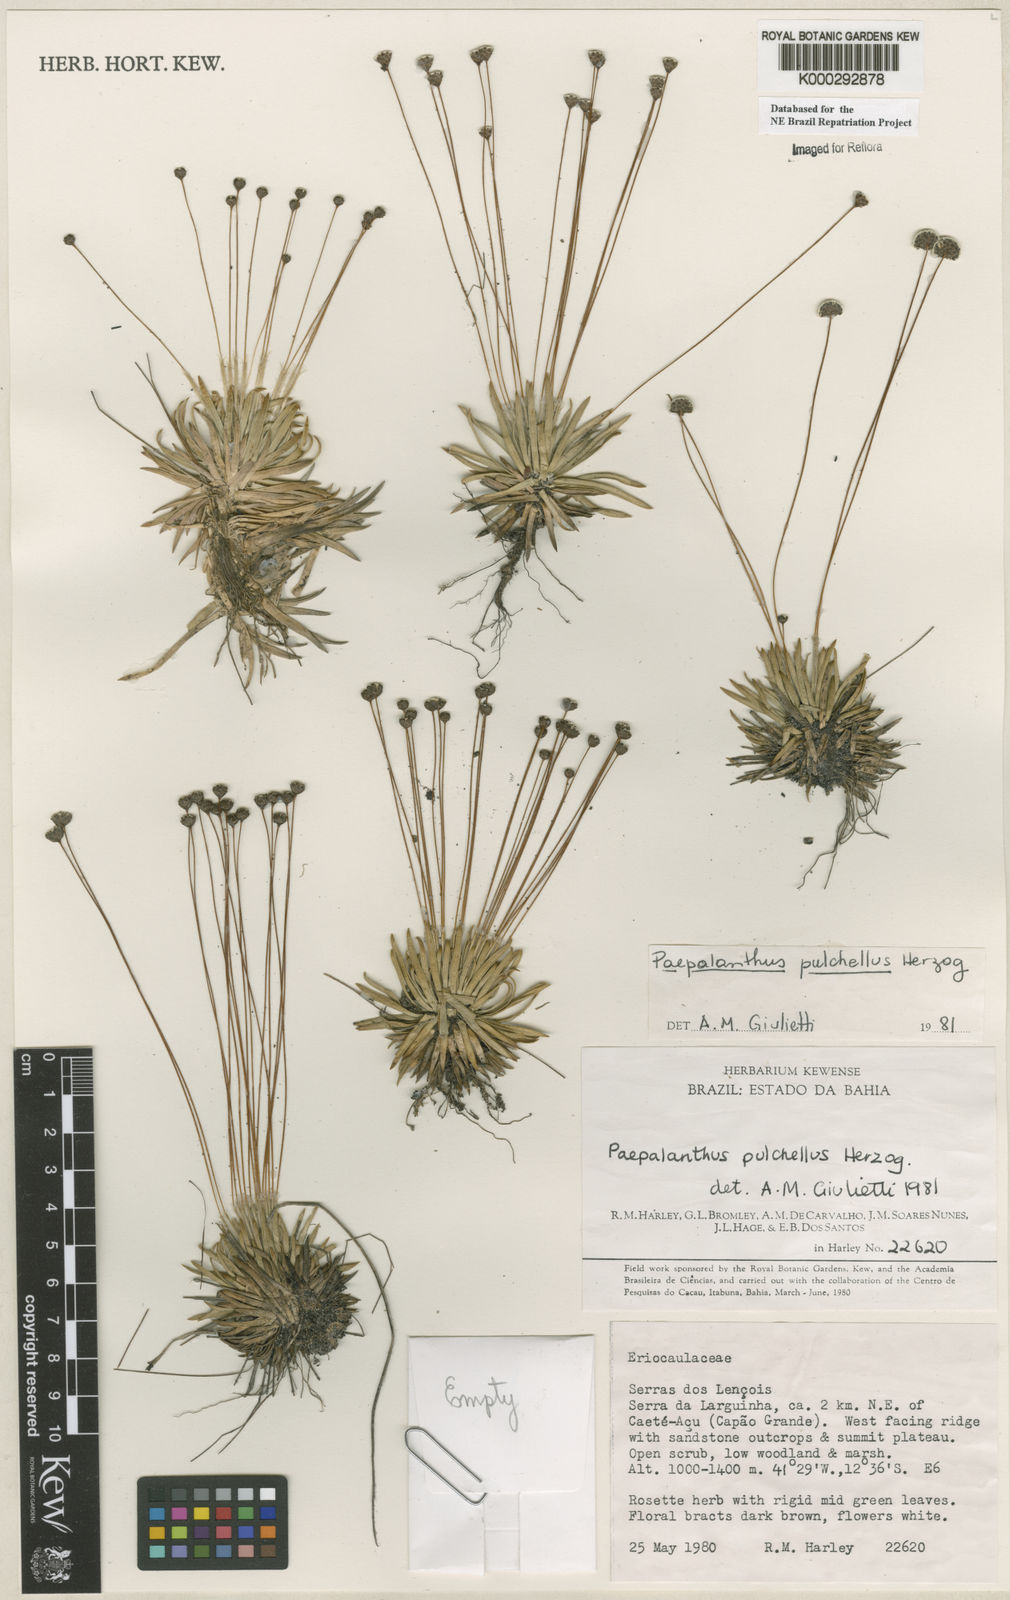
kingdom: Plantae
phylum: Tracheophyta
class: Liliopsida
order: Poales
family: Eriocaulaceae
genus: Paepalanthus
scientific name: Paepalanthus pulchellus
